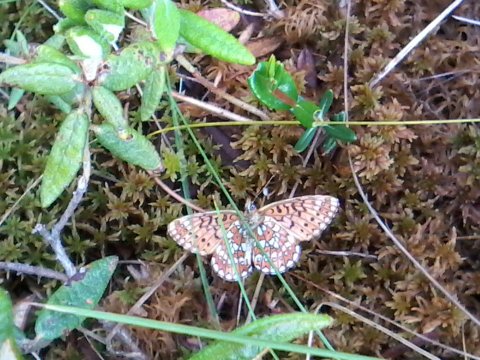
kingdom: Animalia
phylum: Arthropoda
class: Insecta
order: Lepidoptera
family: Nymphalidae
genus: Boloria
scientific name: Boloria eunomia
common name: Bog Fritillary
